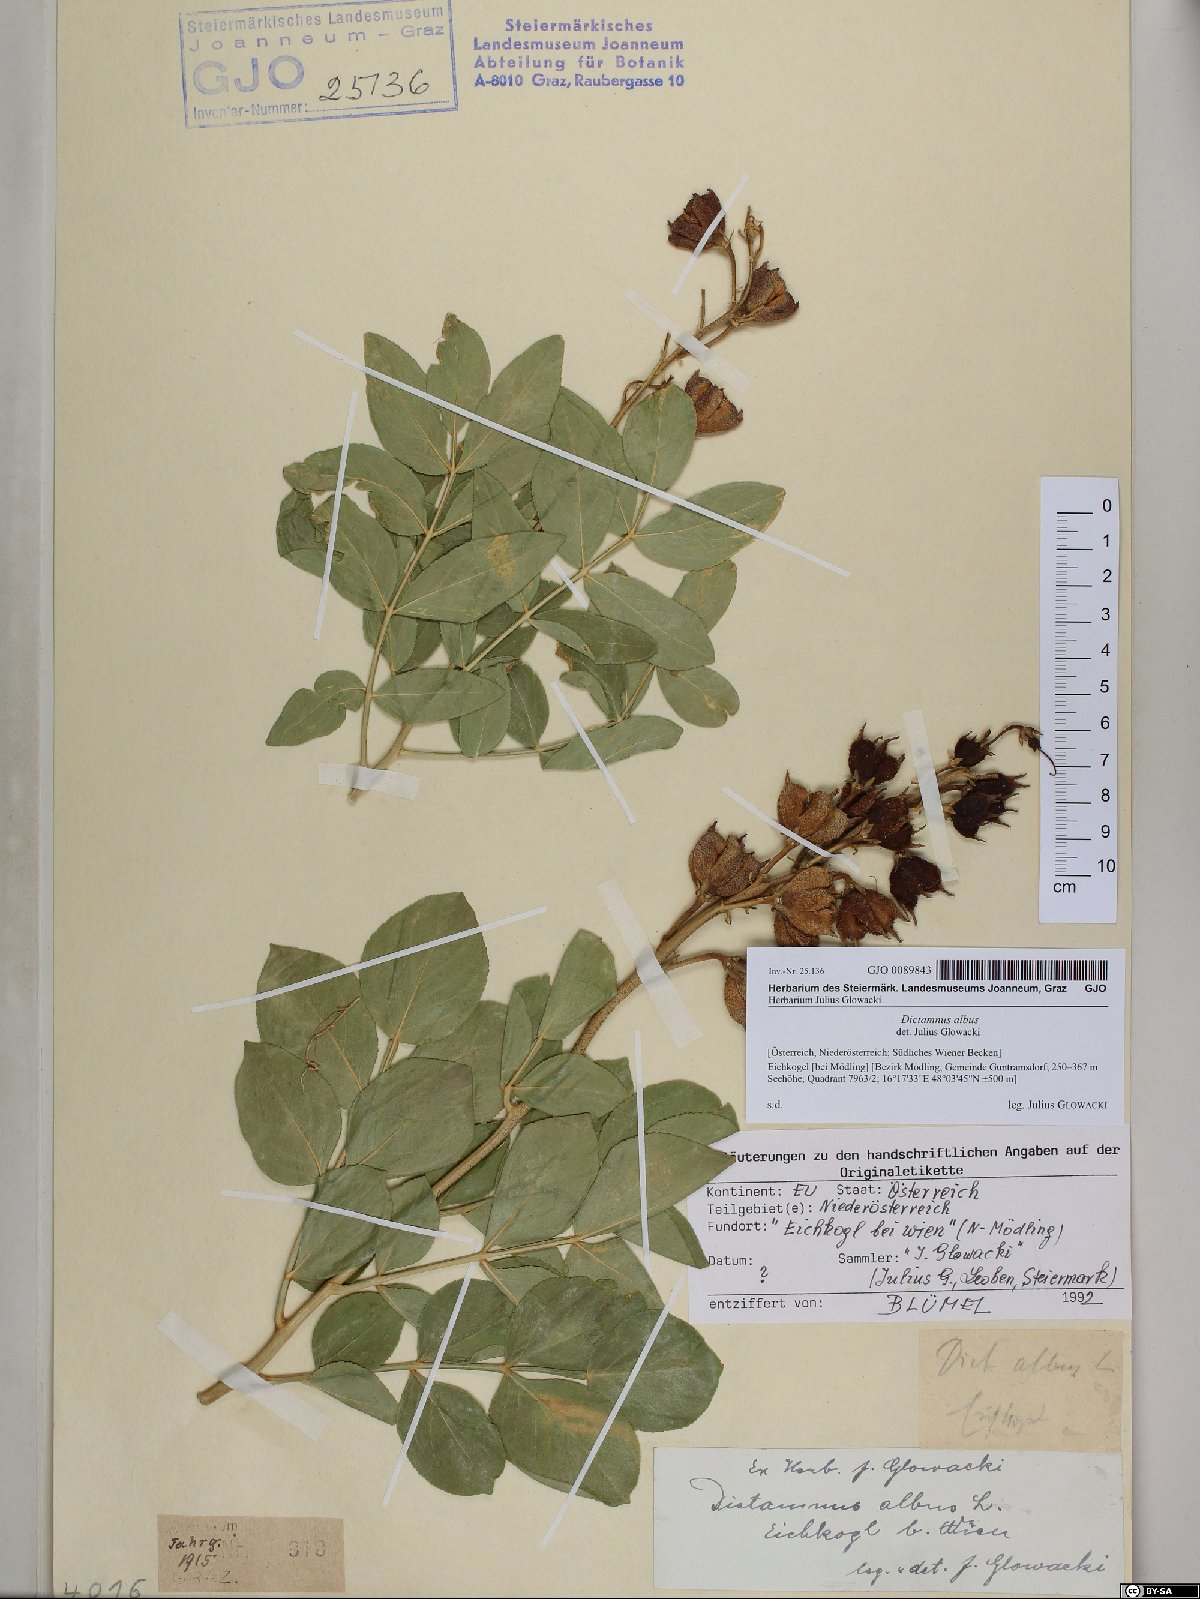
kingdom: Plantae
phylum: Tracheophyta
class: Magnoliopsida
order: Sapindales
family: Rutaceae
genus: Dictamnus
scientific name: Dictamnus albus
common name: Gasplant
